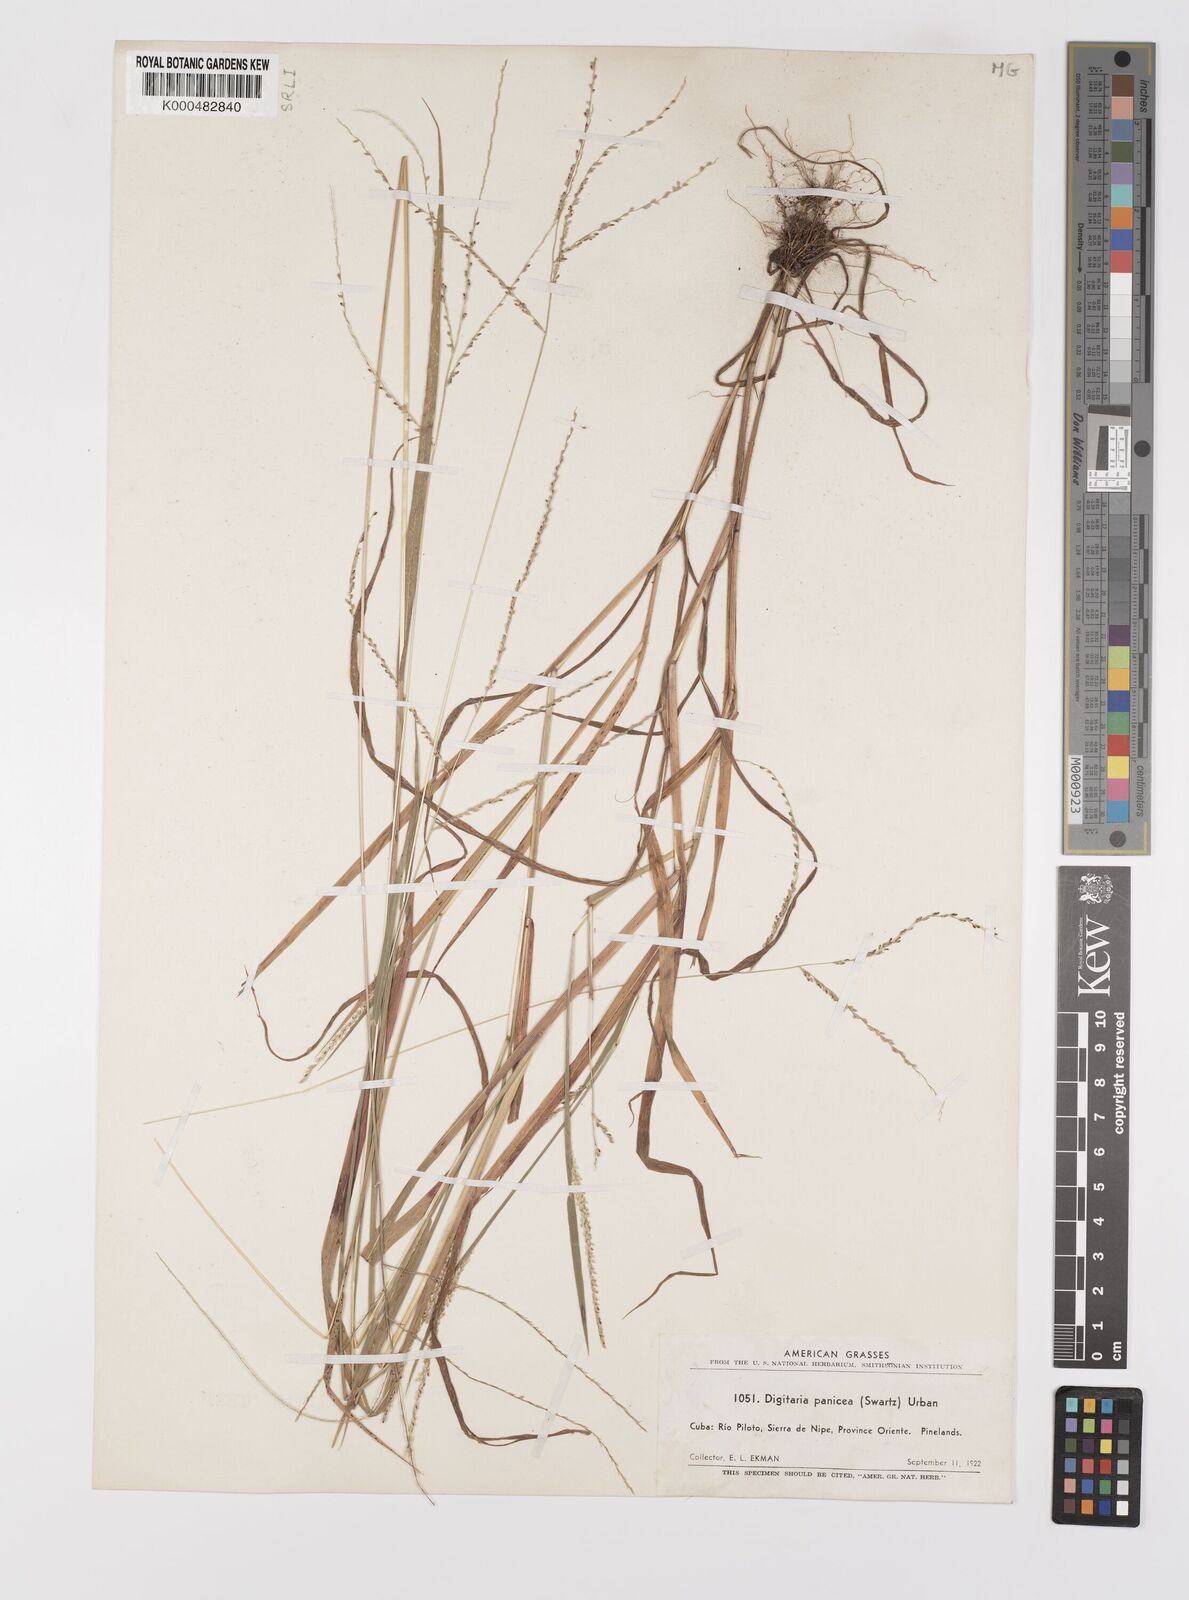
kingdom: Plantae
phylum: Tracheophyta
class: Liliopsida
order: Poales
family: Poaceae
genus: Digitaria
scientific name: Digitaria curvinervis
